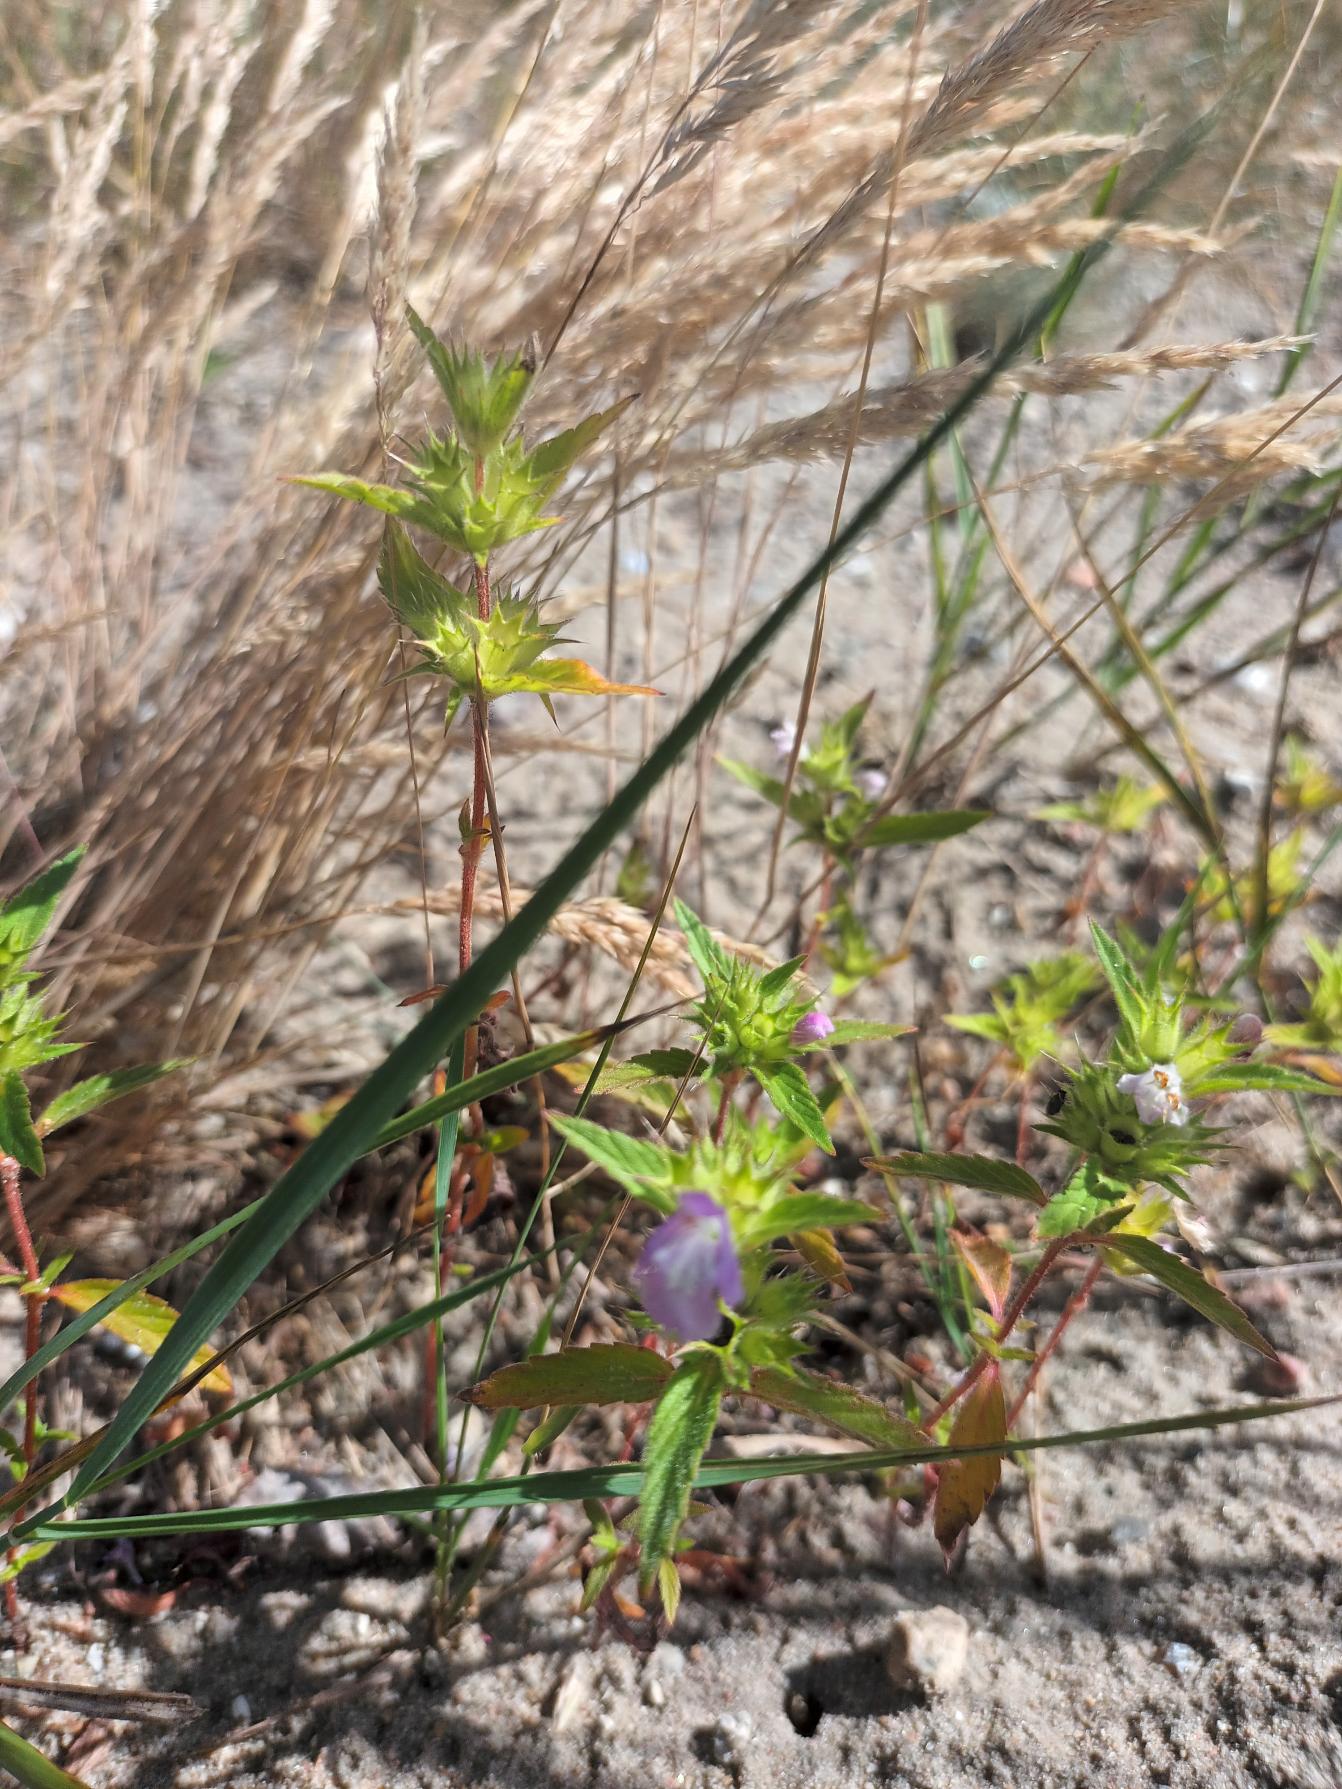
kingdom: Plantae
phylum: Tracheophyta
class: Magnoliopsida
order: Lamiales
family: Lamiaceae
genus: Galeopsis
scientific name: Galeopsis ladanum
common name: Sand-hanekro
